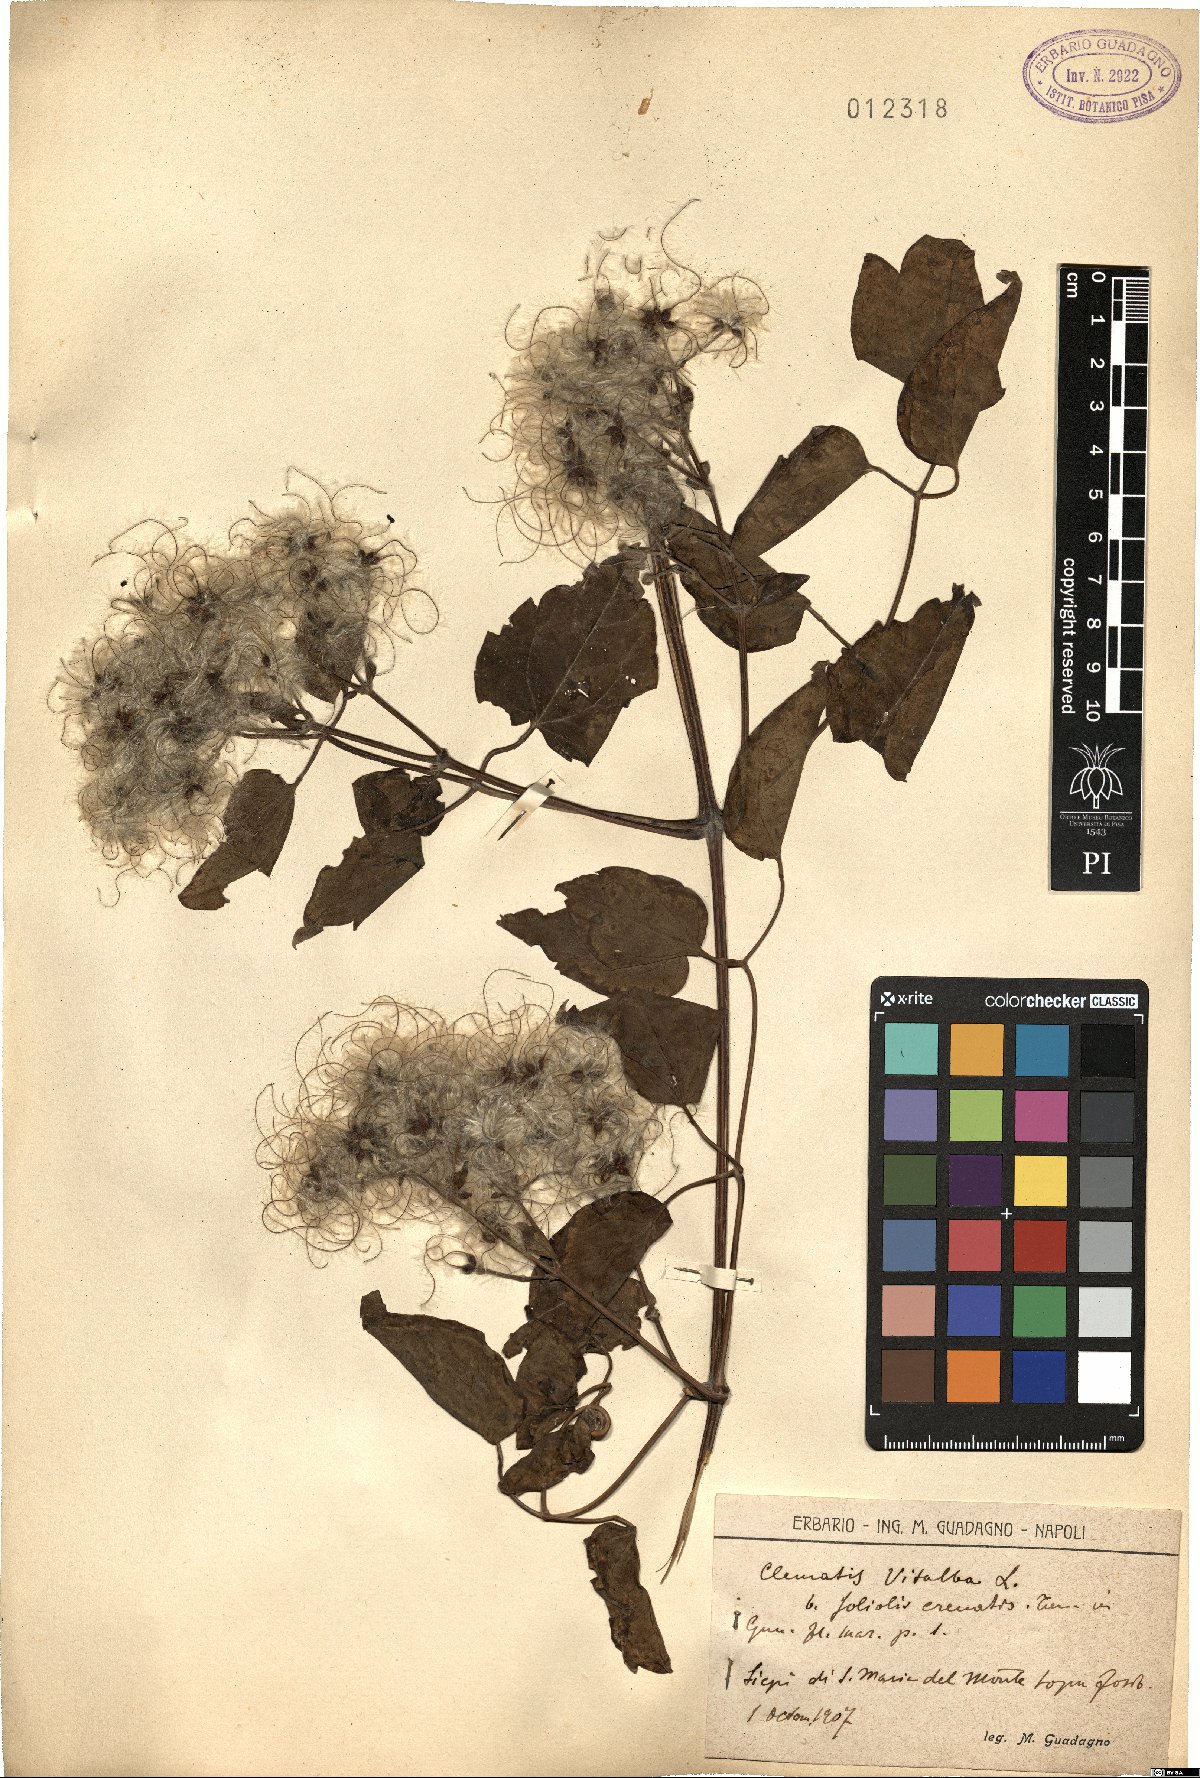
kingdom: Plantae
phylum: Tracheophyta
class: Magnoliopsida
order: Ranunculales
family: Ranunculaceae
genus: Clematis
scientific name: Clematis vitalba
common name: Evergreen clematis
